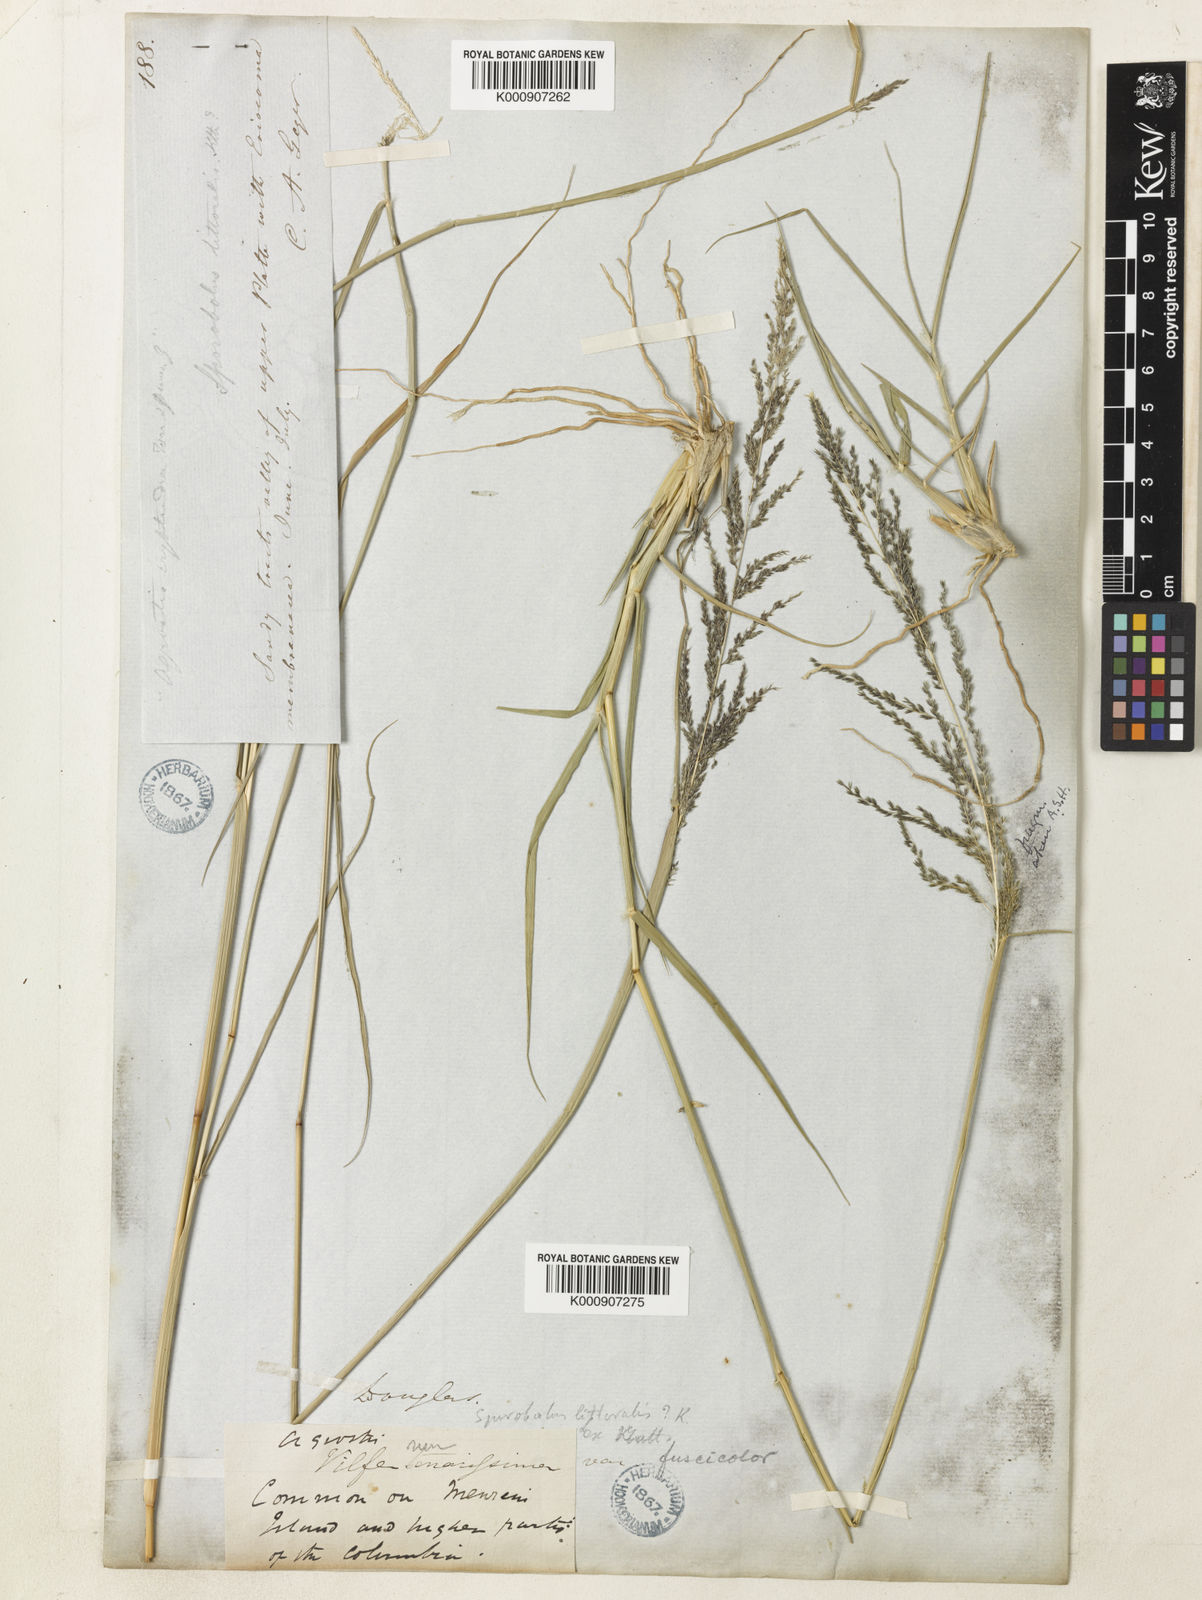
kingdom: Plantae
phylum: Tracheophyta
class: Liliopsida
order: Poales
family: Poaceae
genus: Sporobolus
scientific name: Sporobolus cryptandrus
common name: Sand dropseed
